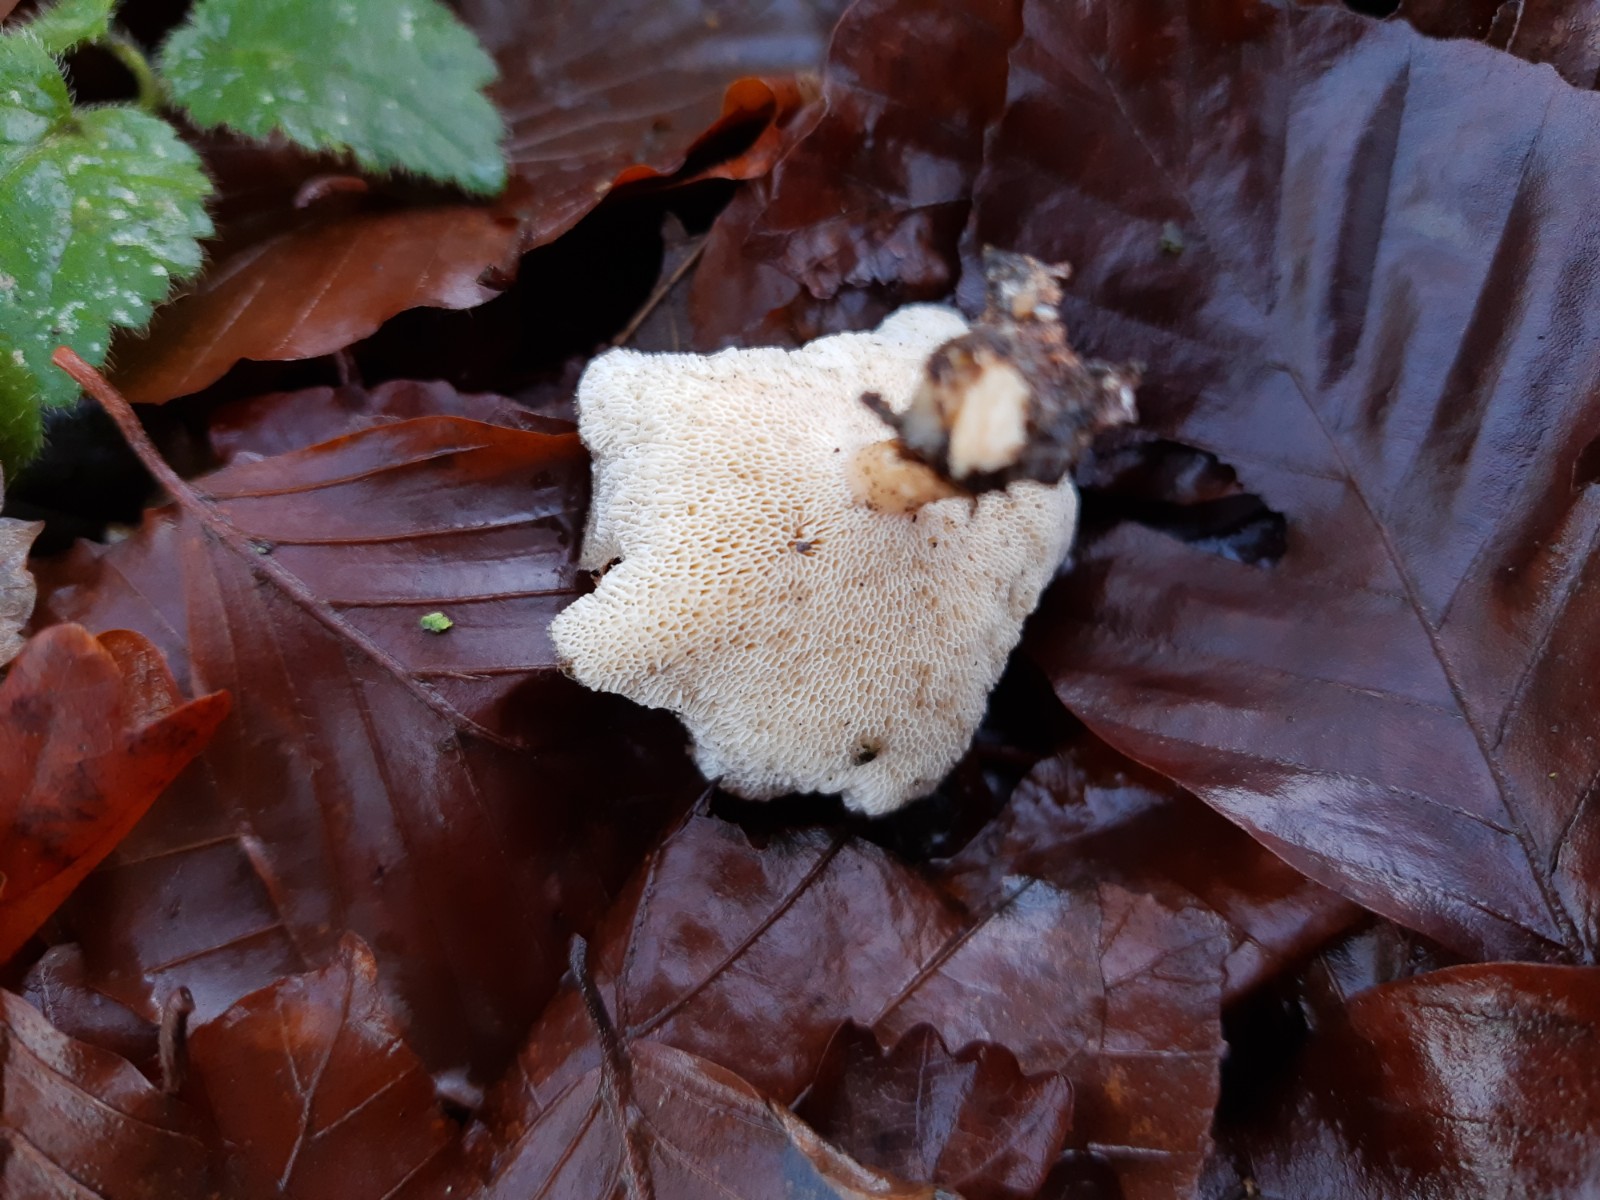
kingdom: Fungi
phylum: Basidiomycota
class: Agaricomycetes
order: Polyporales
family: Polyporaceae
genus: Lentinus
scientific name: Lentinus brumalis
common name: vinter-stilkporesvamp
